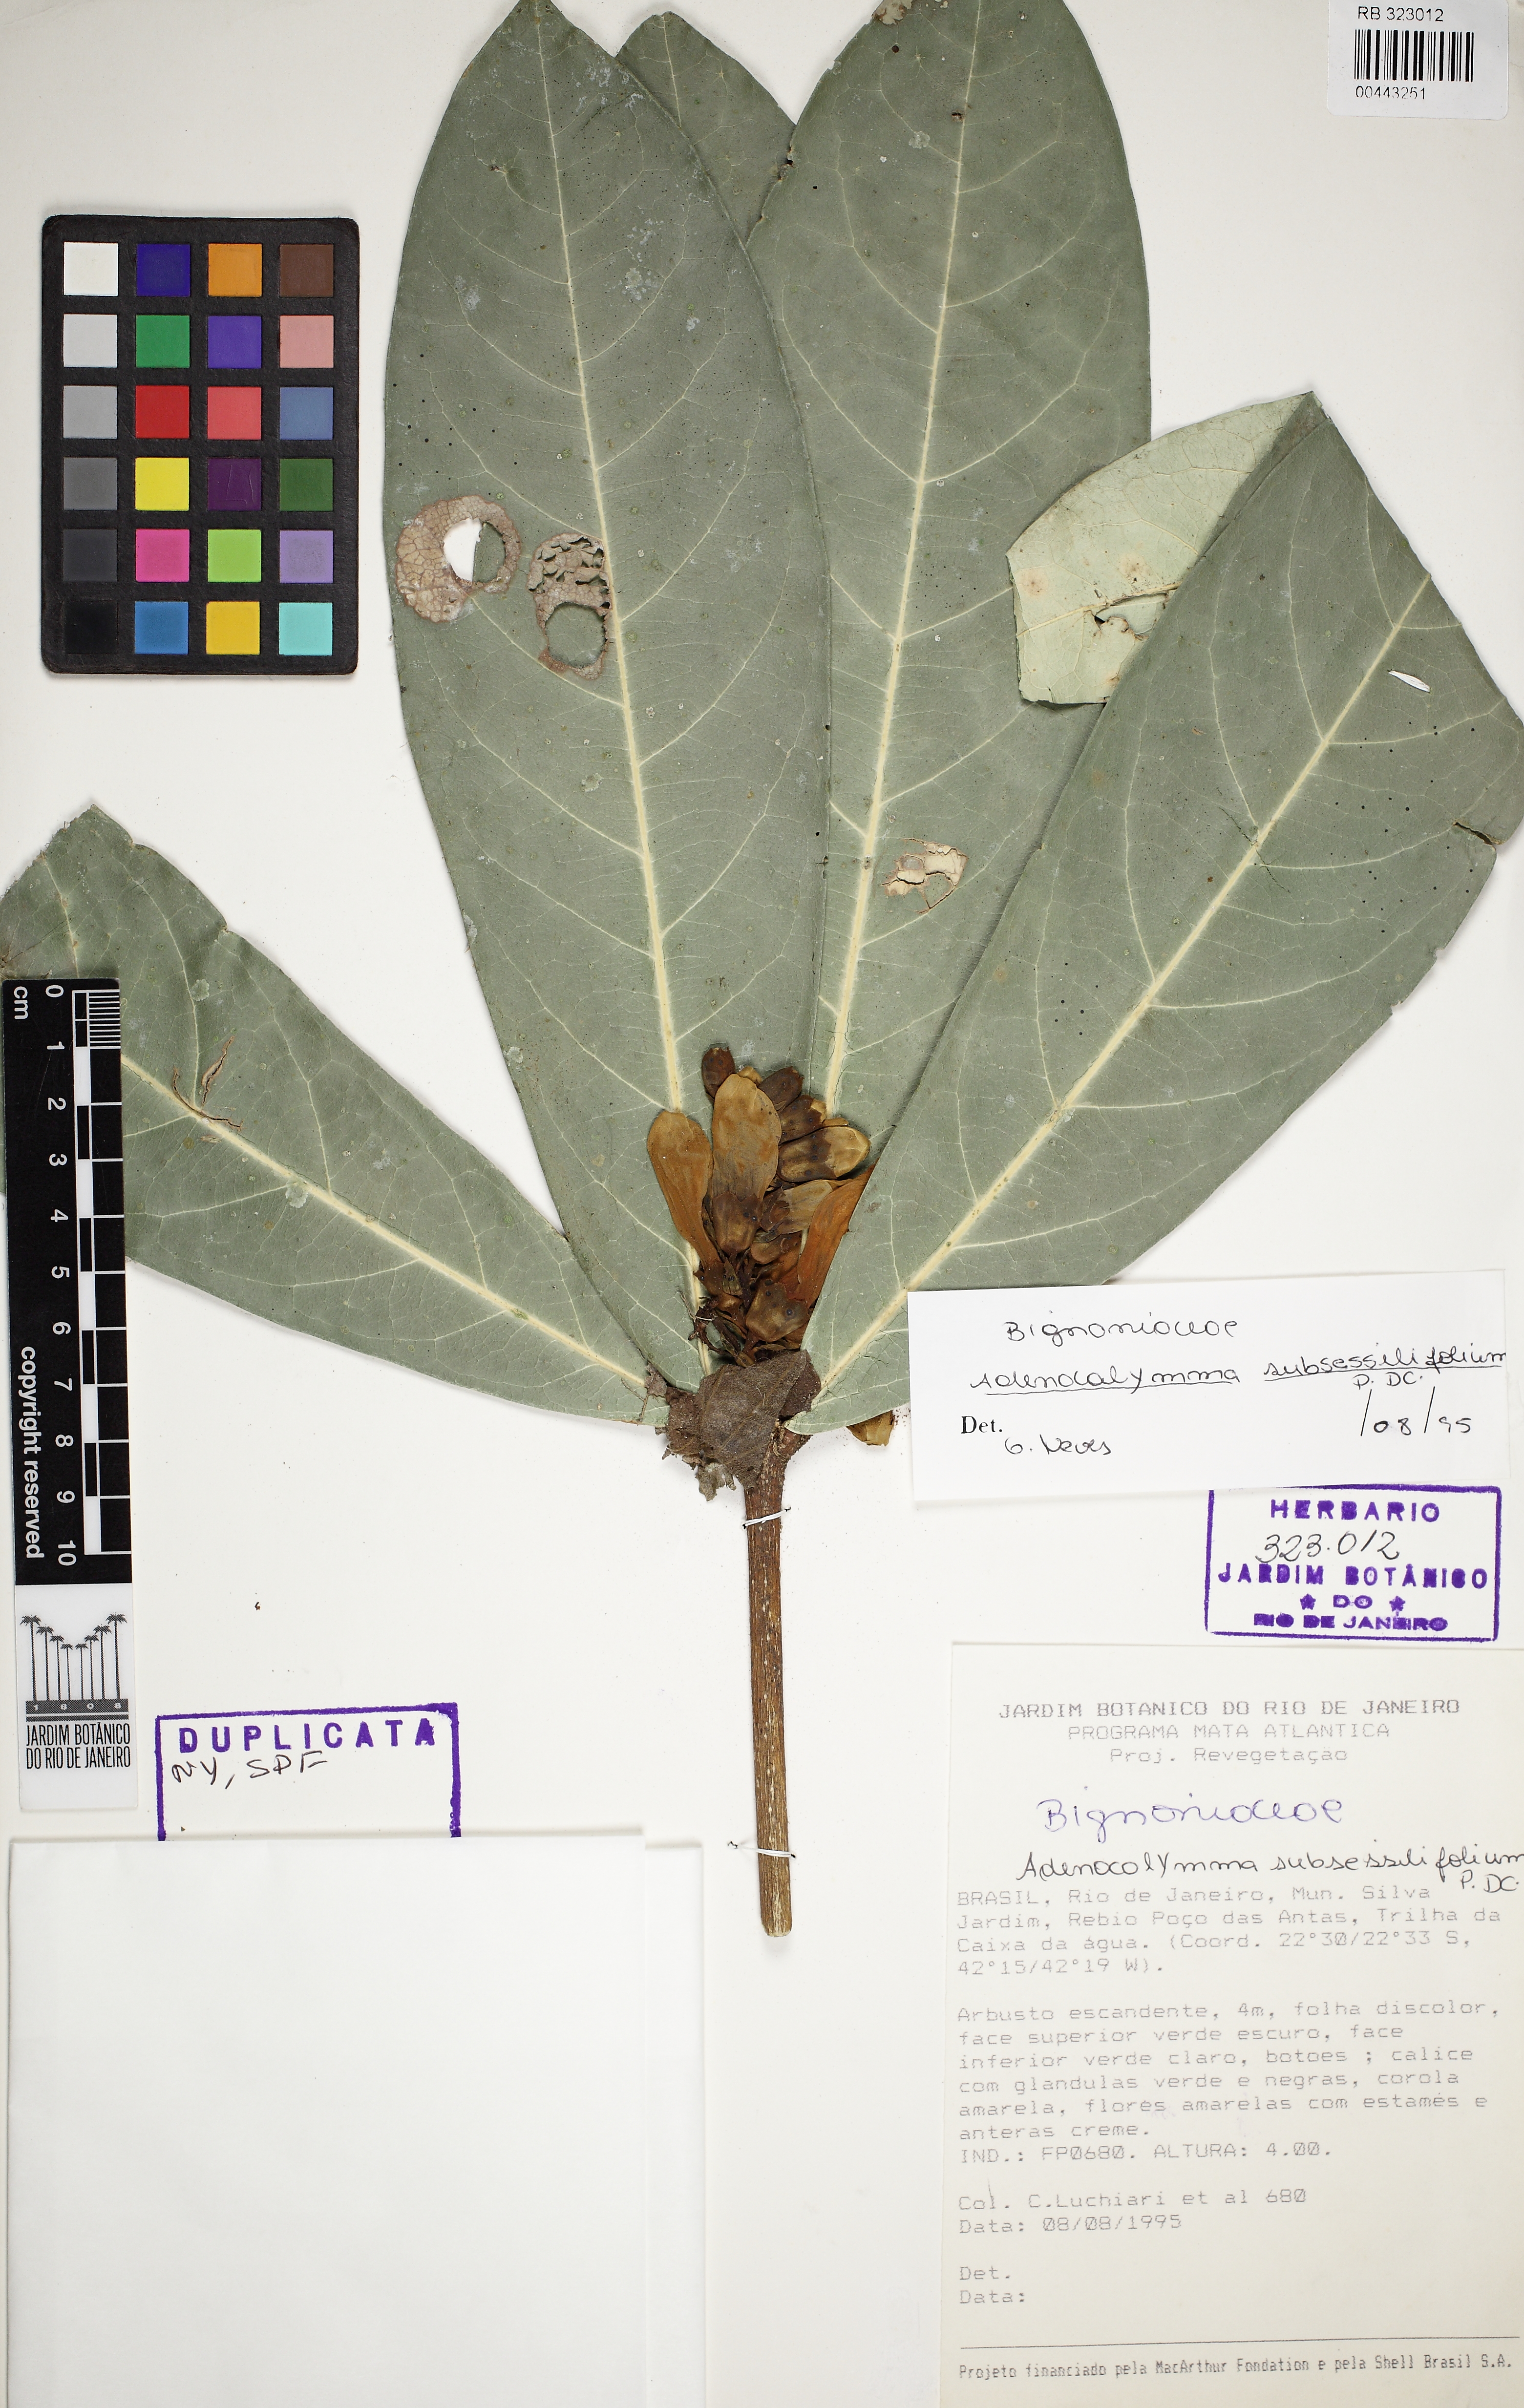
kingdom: Plantae
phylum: Tracheophyta
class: Magnoliopsida
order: Lamiales
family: Bignoniaceae
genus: Adenocalymma
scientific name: Adenocalymma subsessilifolium
